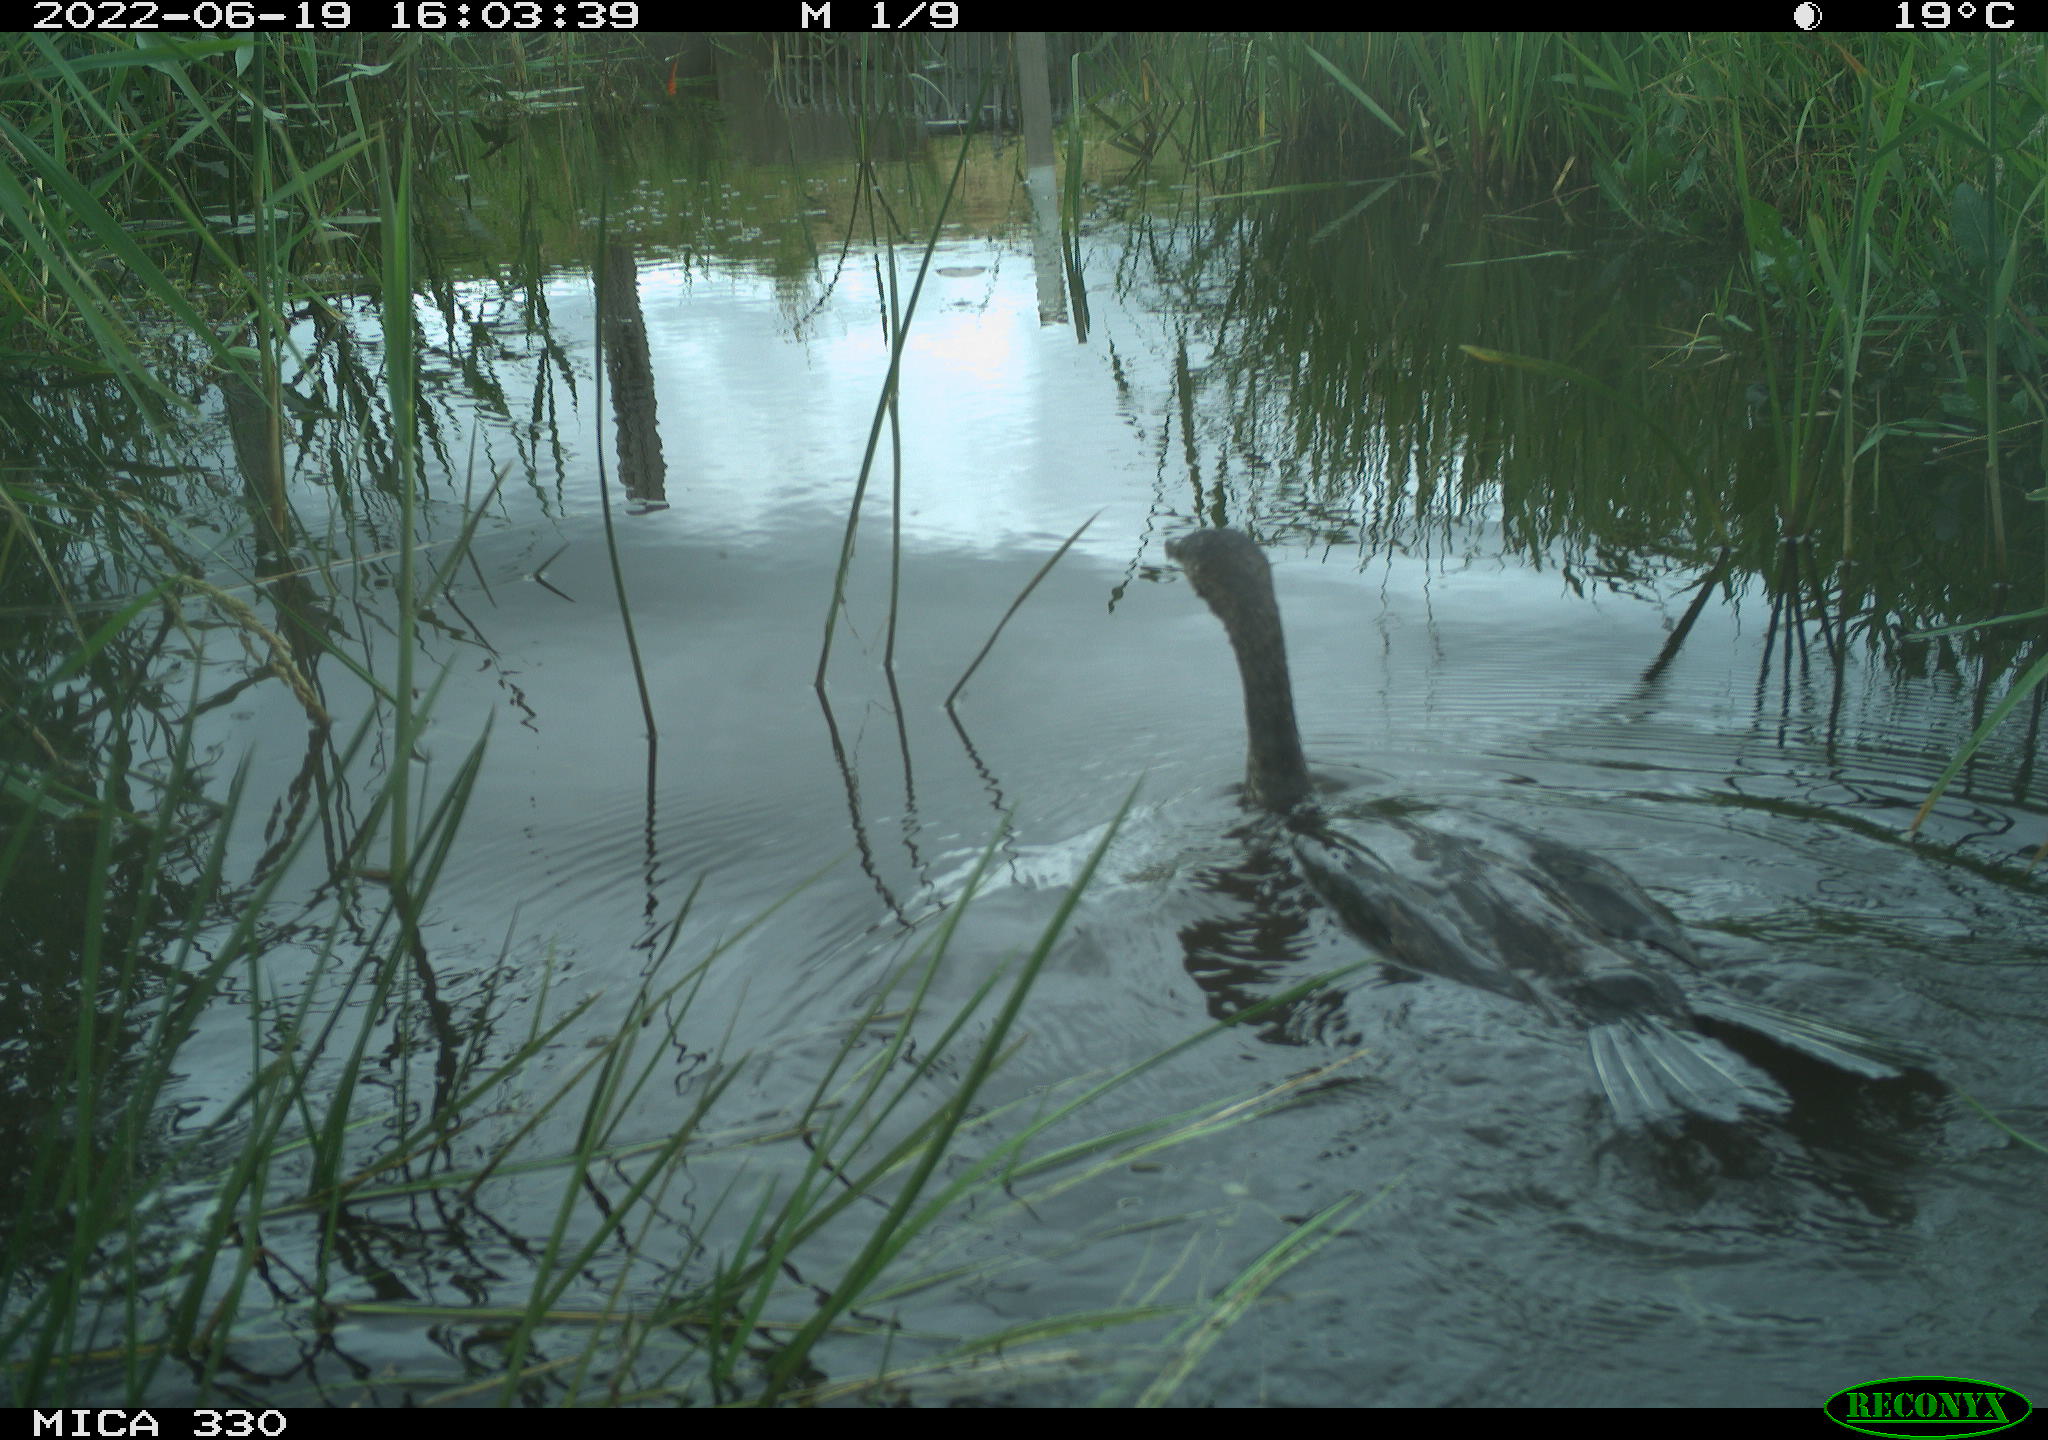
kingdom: Animalia
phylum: Chordata
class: Aves
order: Suliformes
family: Phalacrocoracidae
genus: Phalacrocorax
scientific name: Phalacrocorax carbo
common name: Great cormorant
